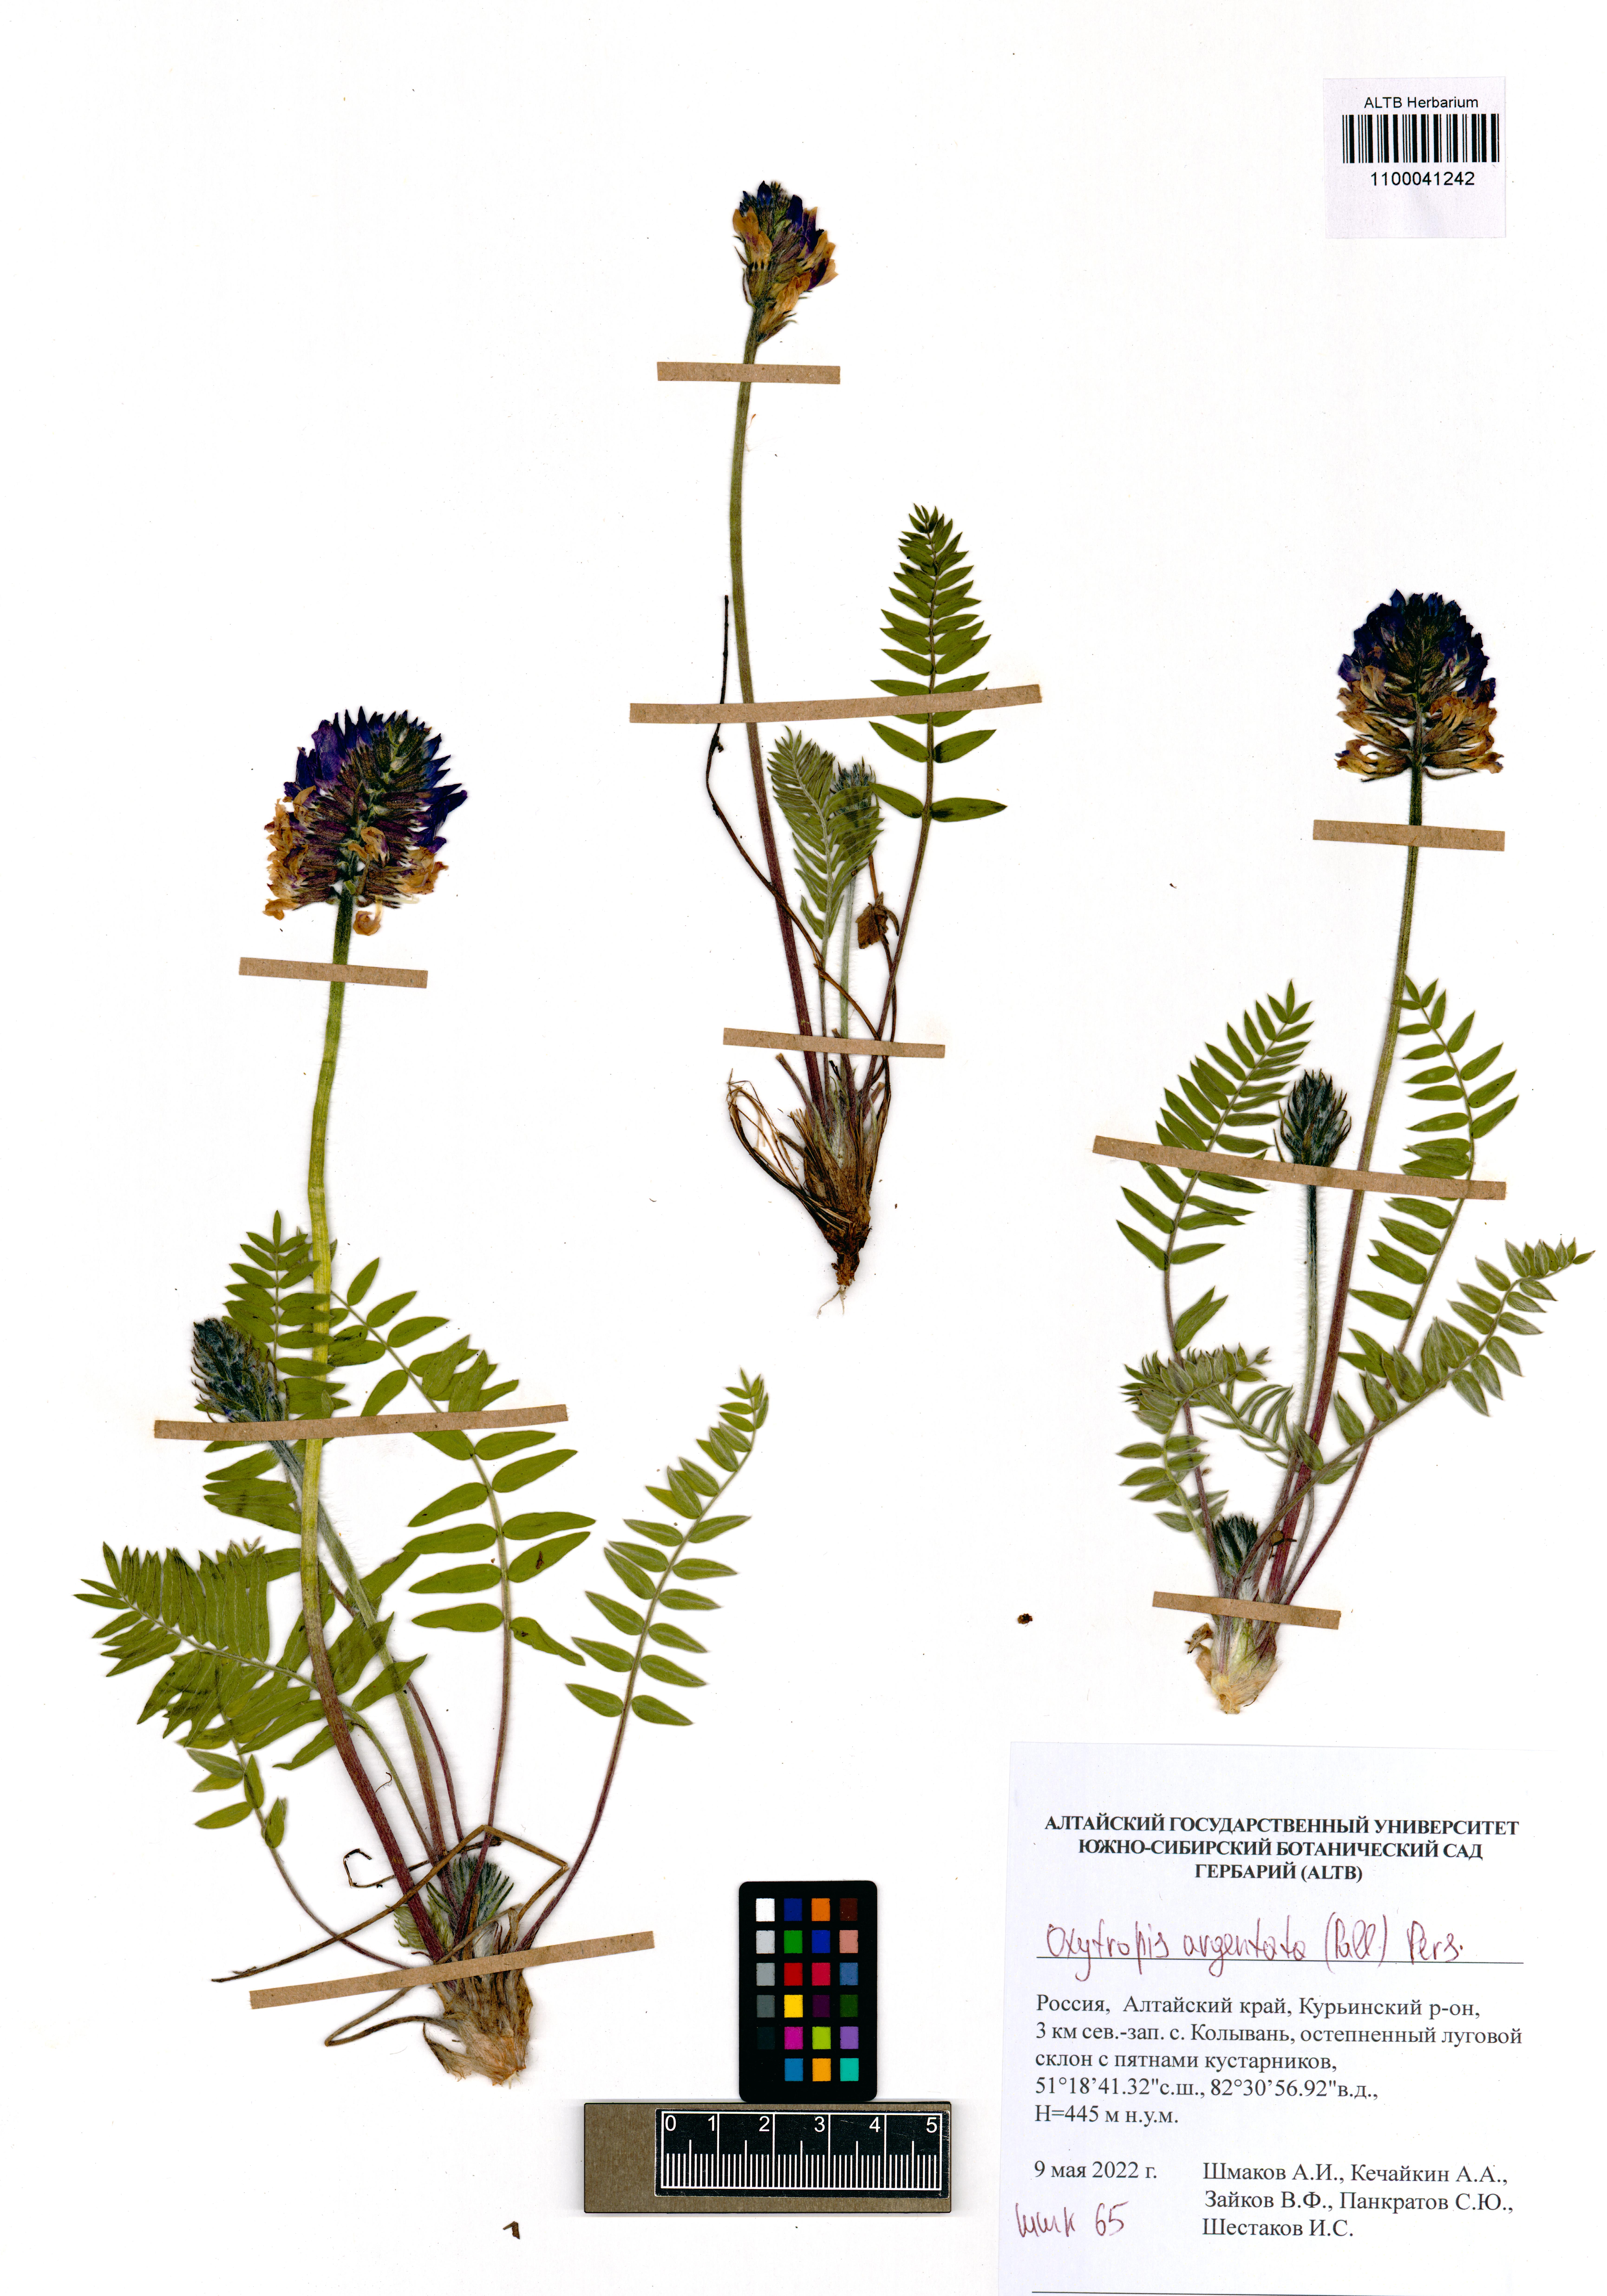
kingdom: Plantae
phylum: Tracheophyta
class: Magnoliopsida
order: Fabales
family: Fabaceae
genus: Oxytropis
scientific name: Oxytropis argentata
